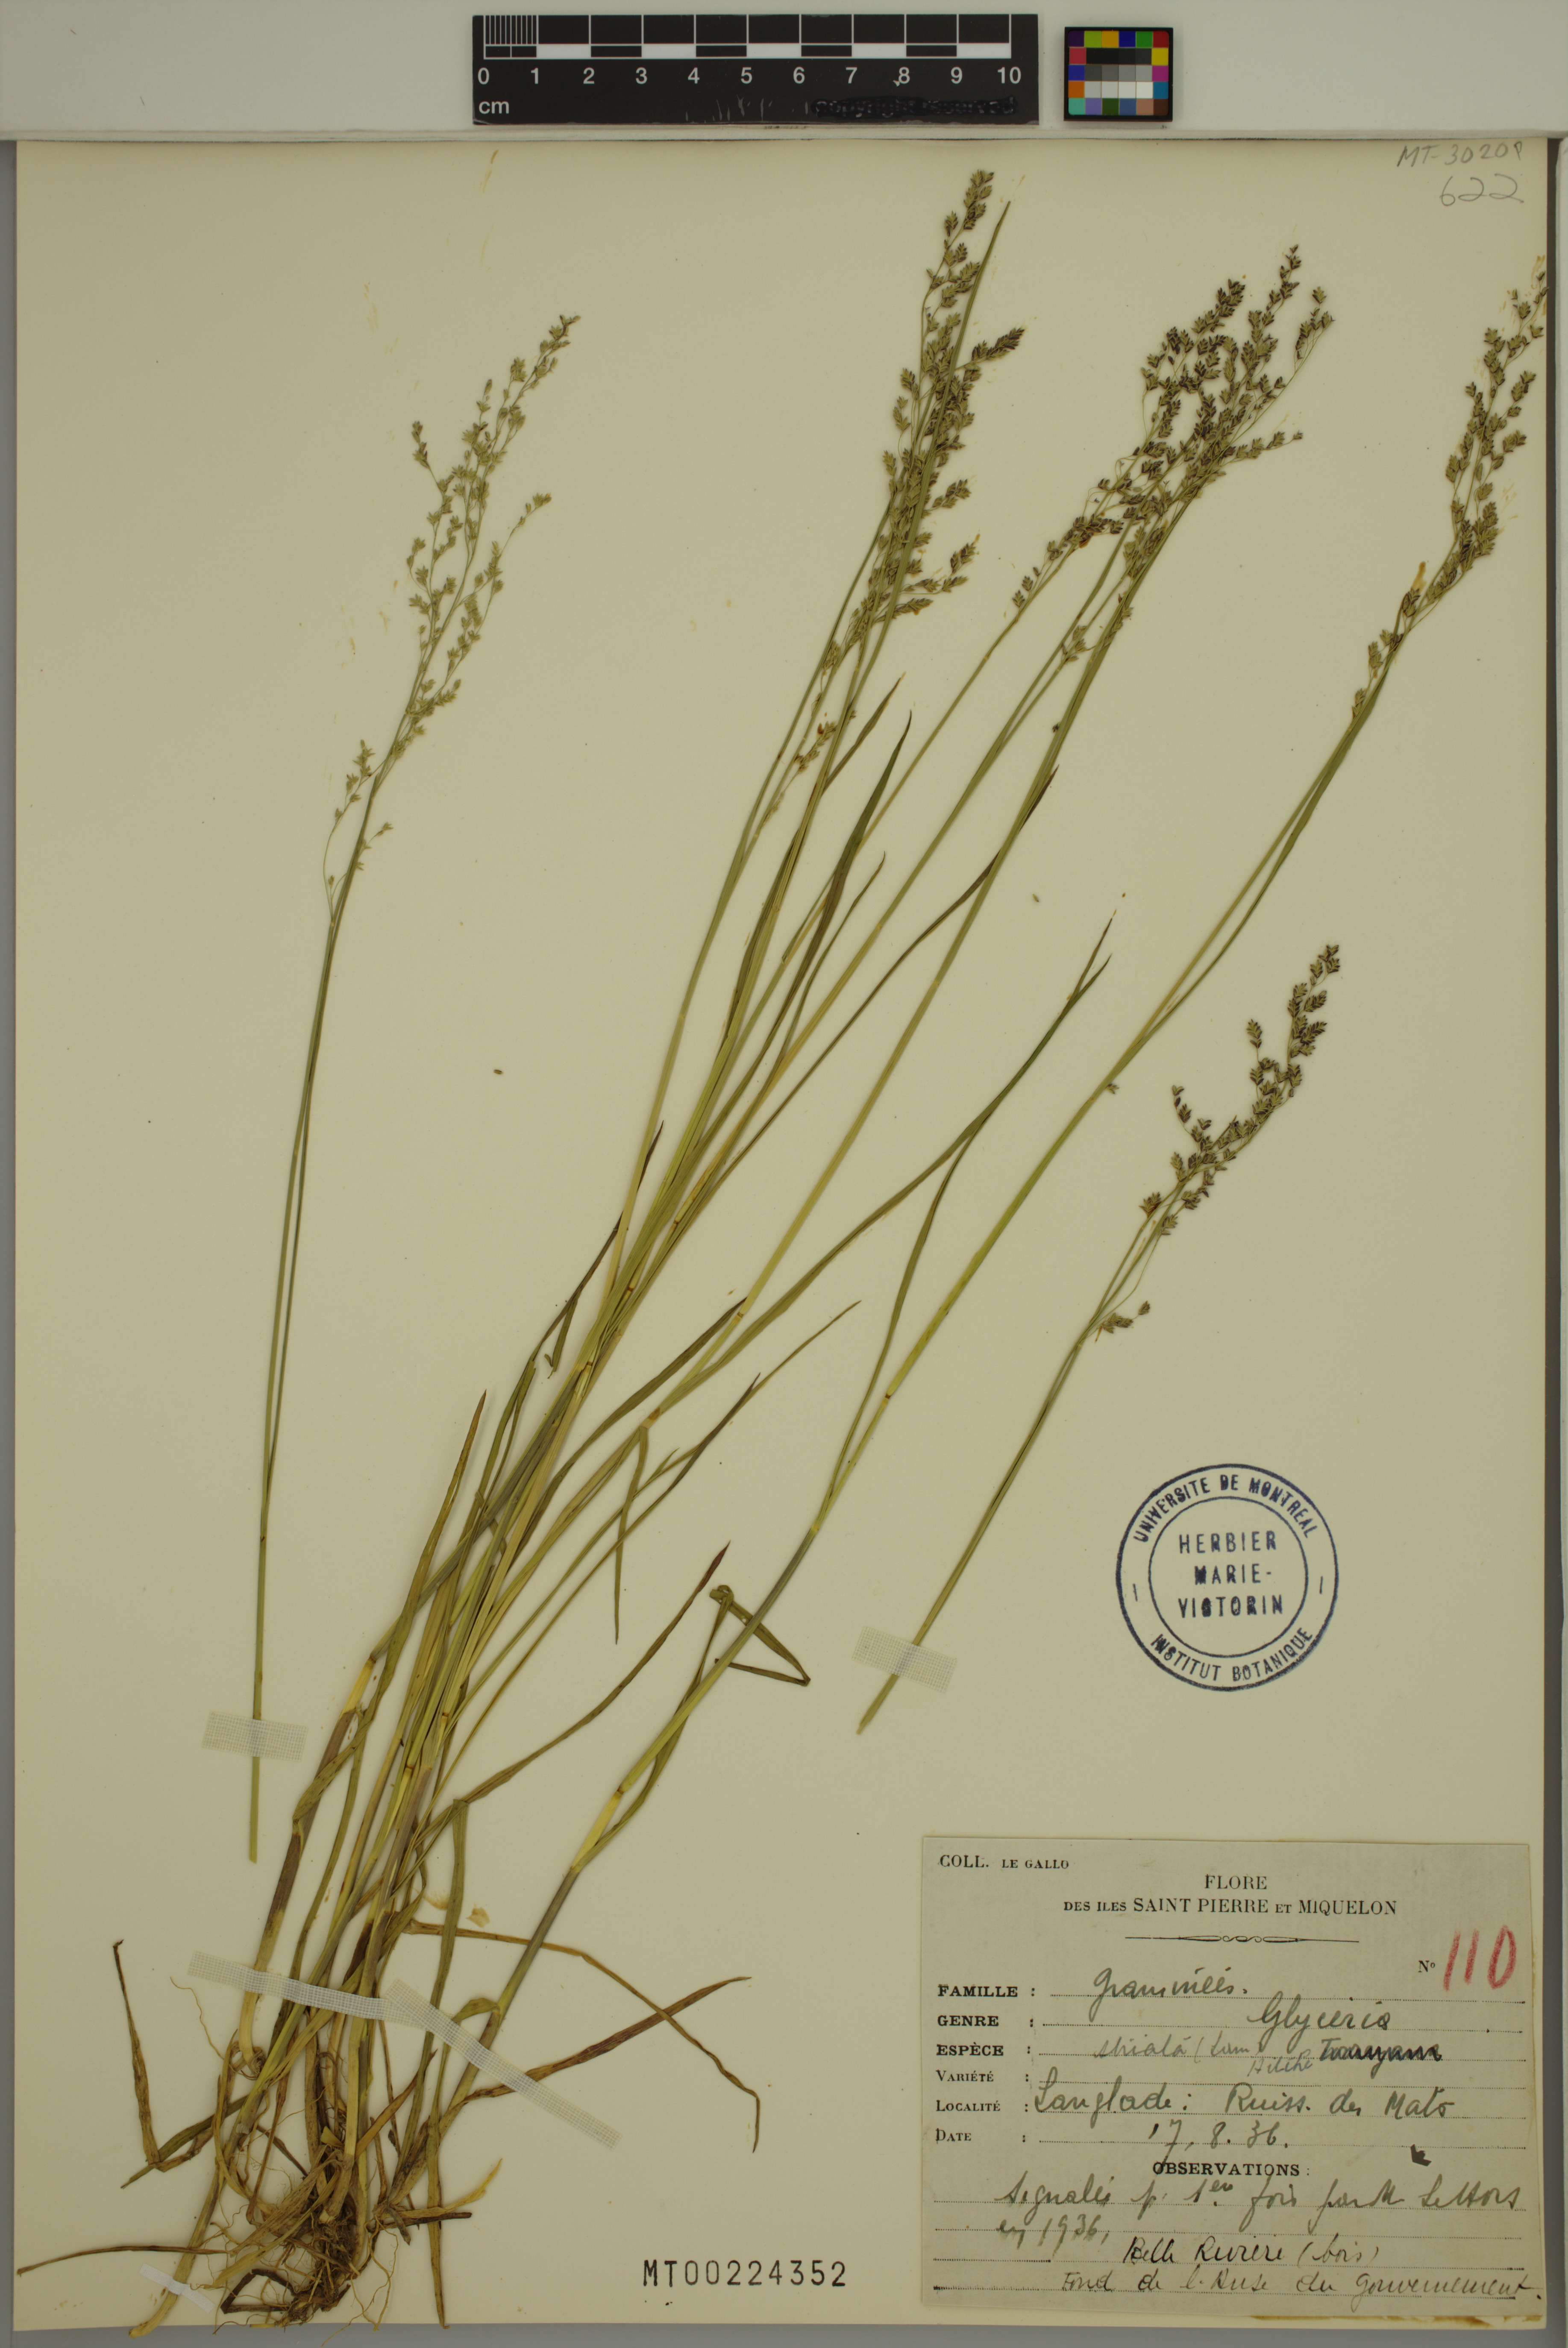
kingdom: Plantae
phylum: Tracheophyta
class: Liliopsida
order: Poales
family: Poaceae
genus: Glyceria
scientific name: Glyceria striata
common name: Fowl manna grass
